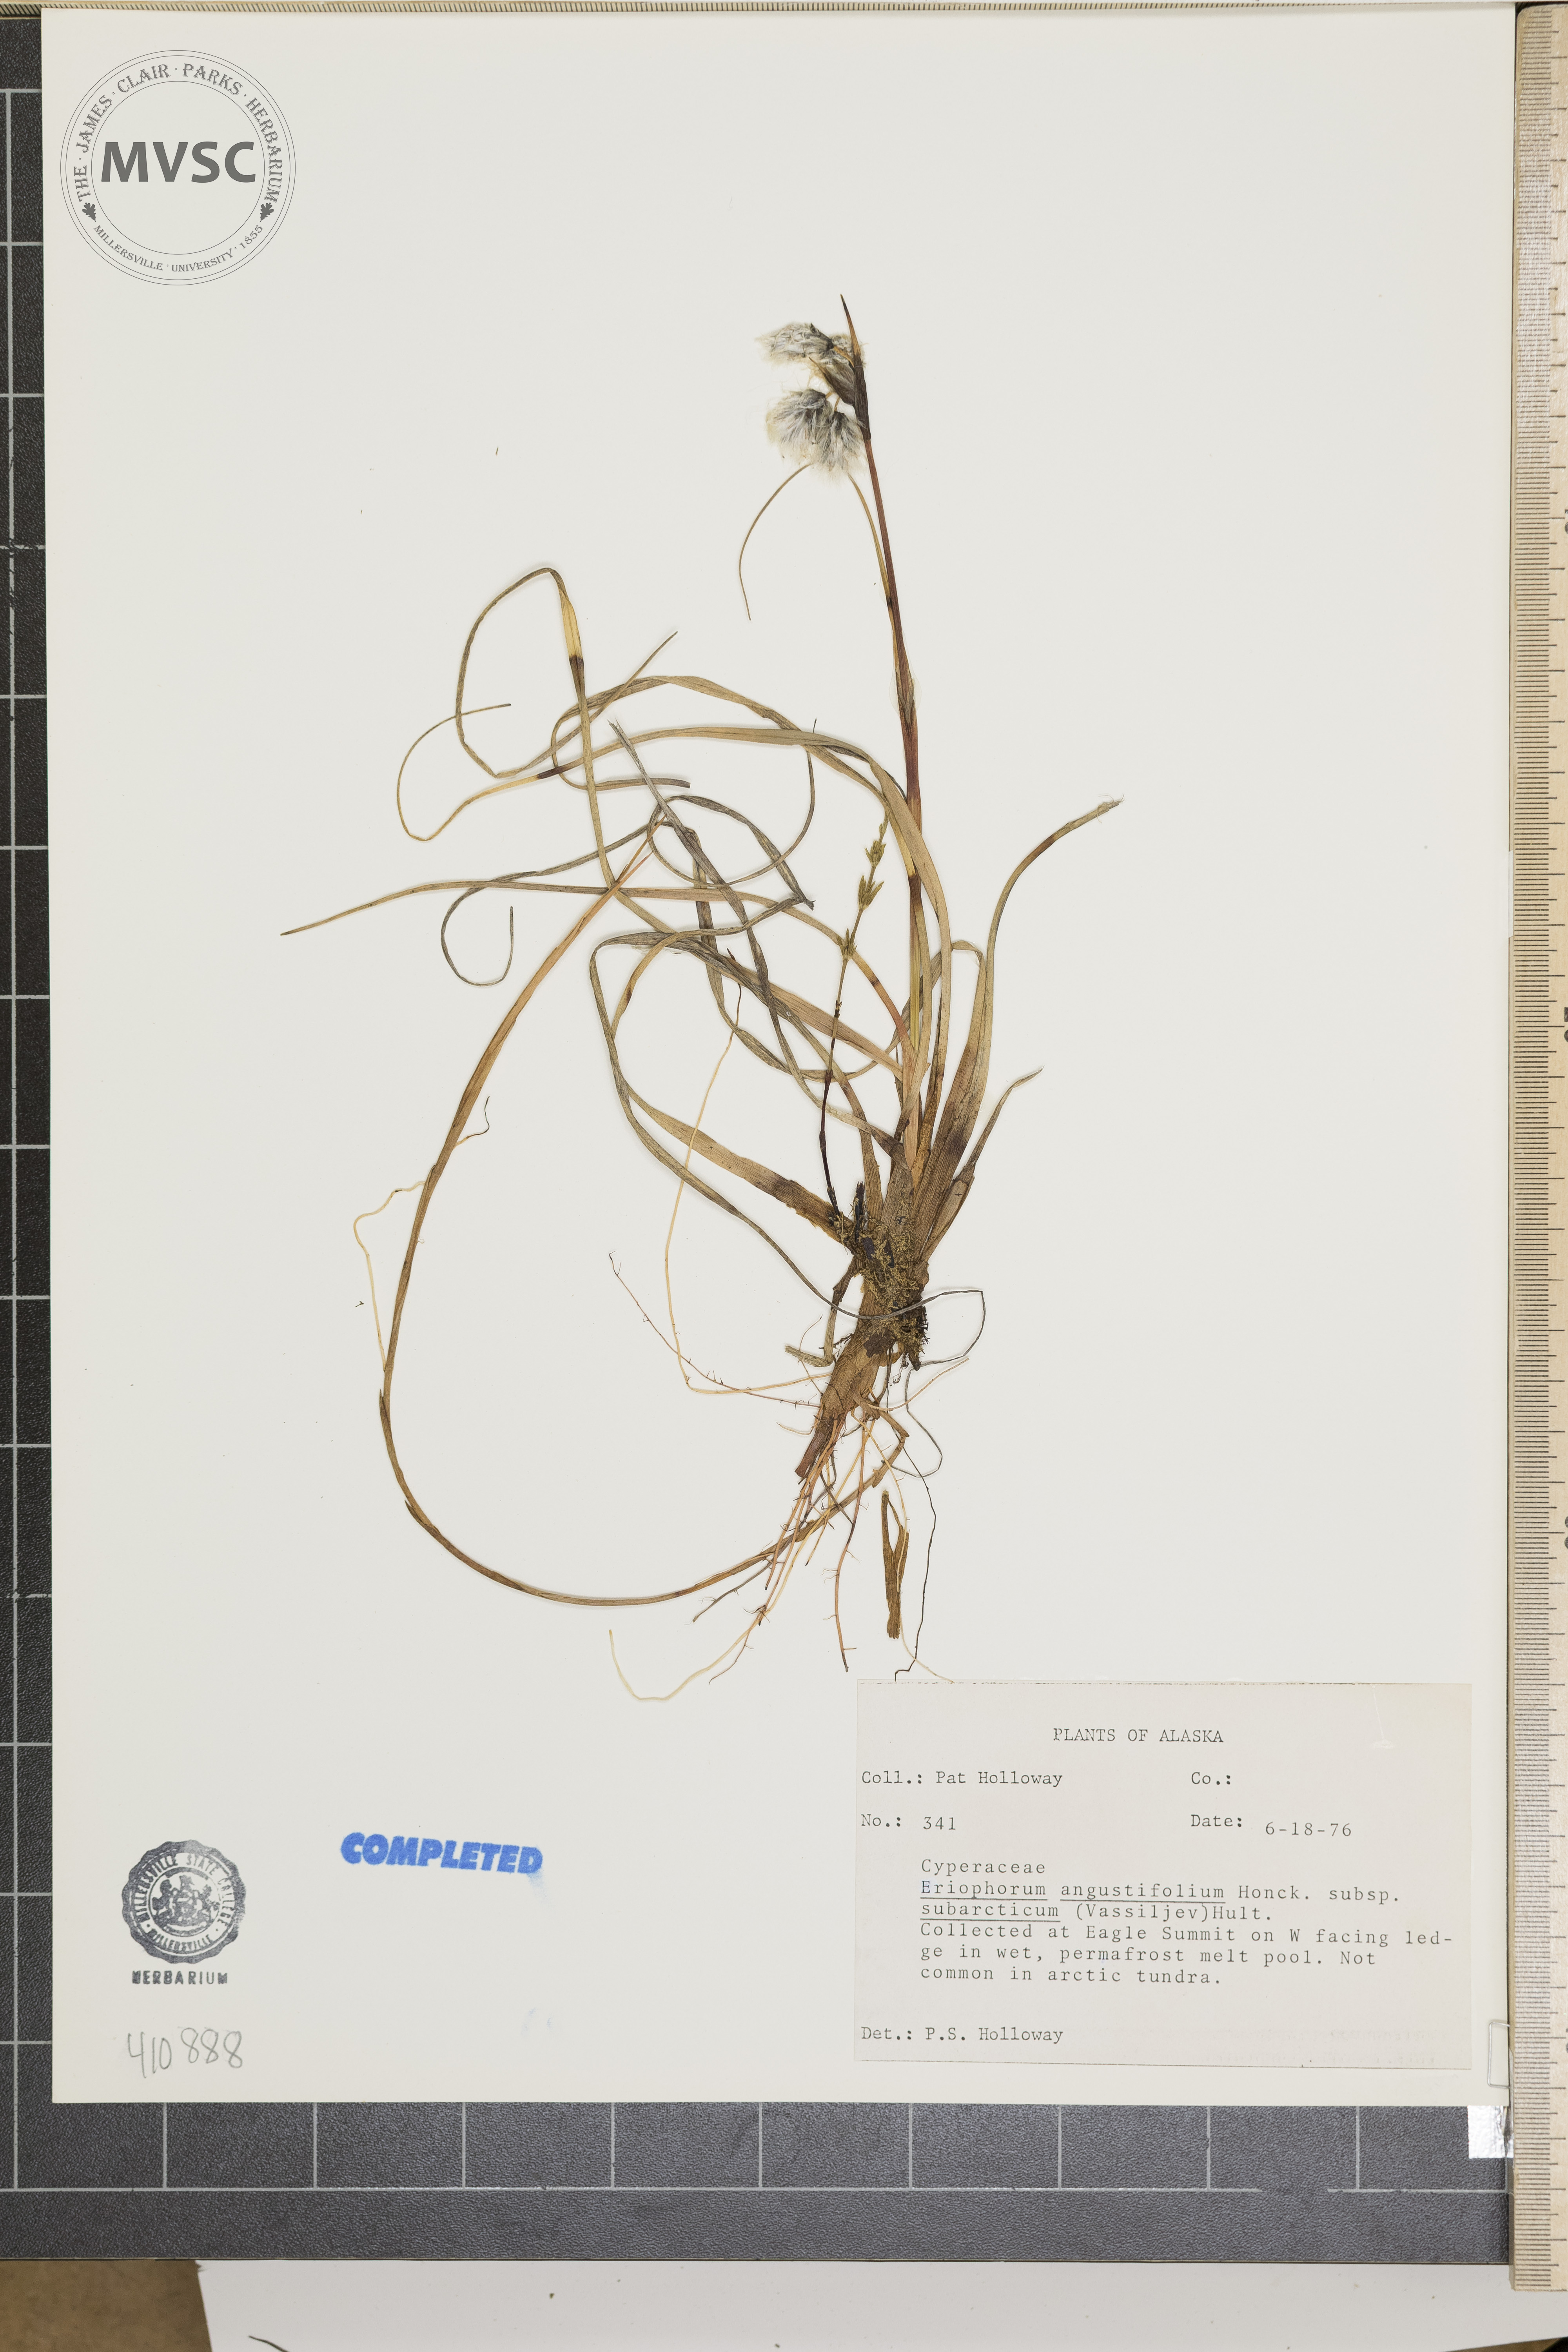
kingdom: Plantae
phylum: Tracheophyta
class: Liliopsida
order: Poales
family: Cyperaceae
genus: Eriophorum
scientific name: Eriophorum angustifolium
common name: Common cottongrass
